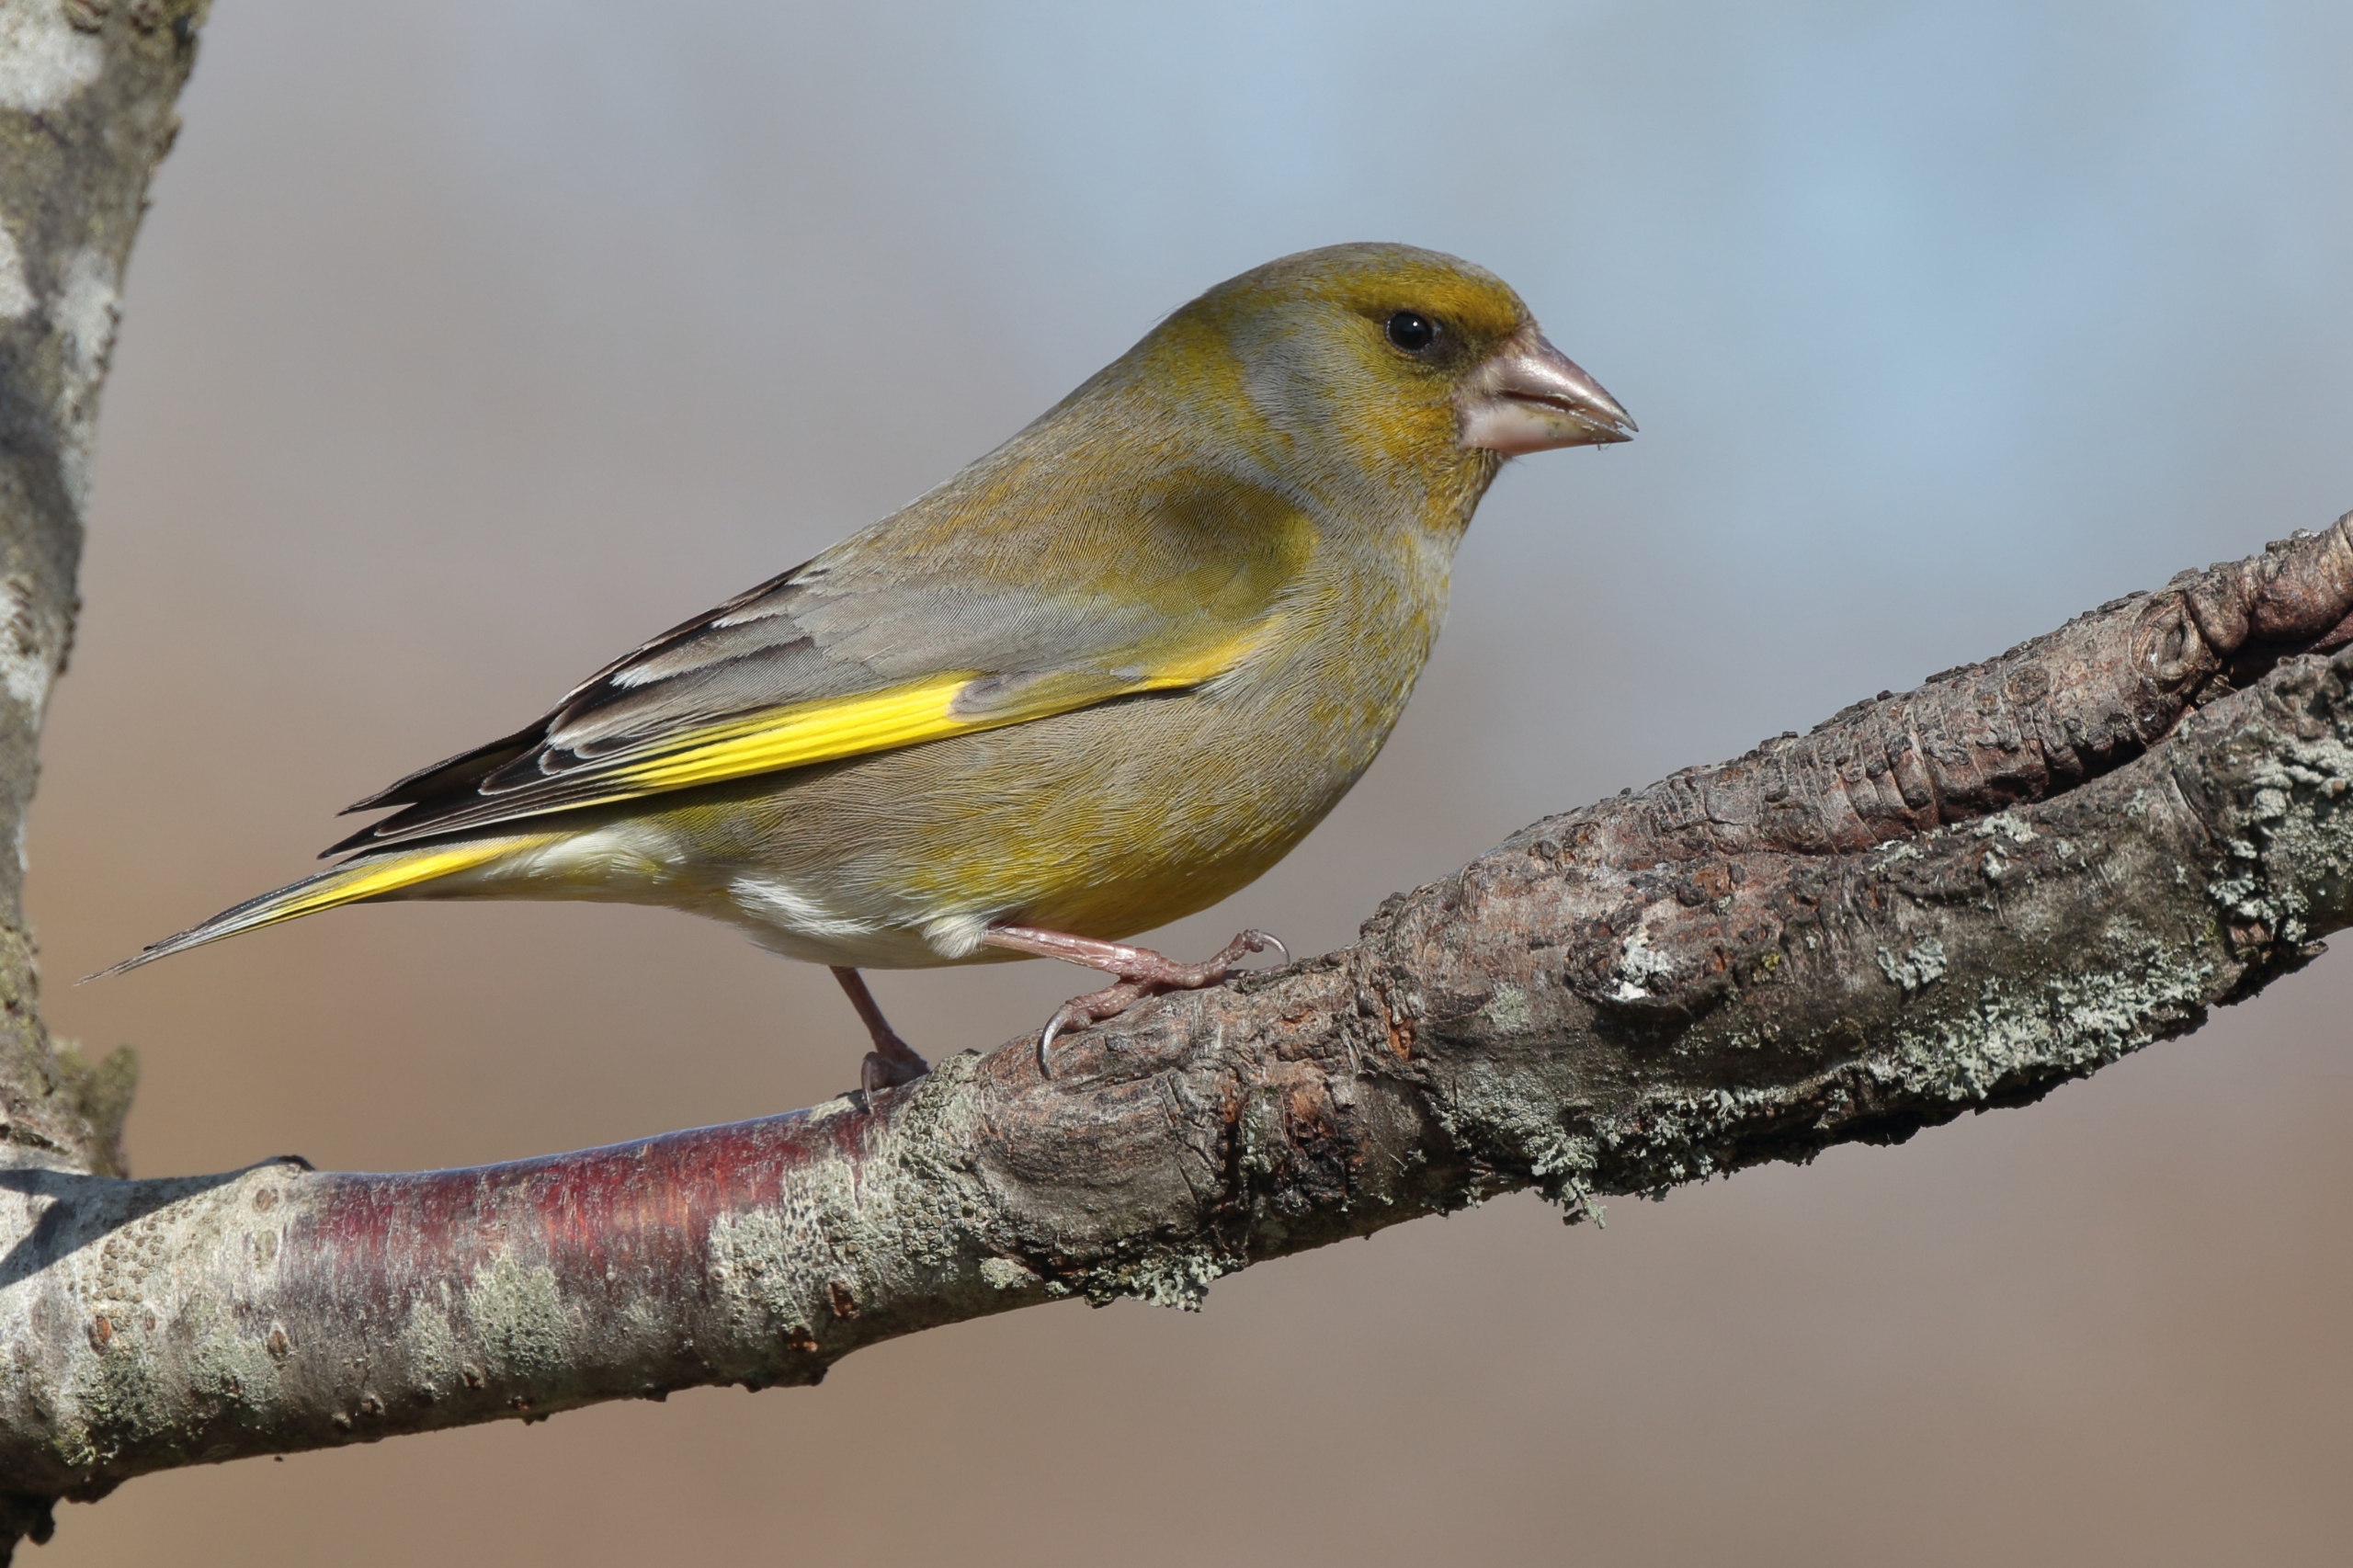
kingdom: Plantae
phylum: Tracheophyta
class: Liliopsida
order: Poales
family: Poaceae
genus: Chloris
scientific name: Chloris chloris
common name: Grønirisk
